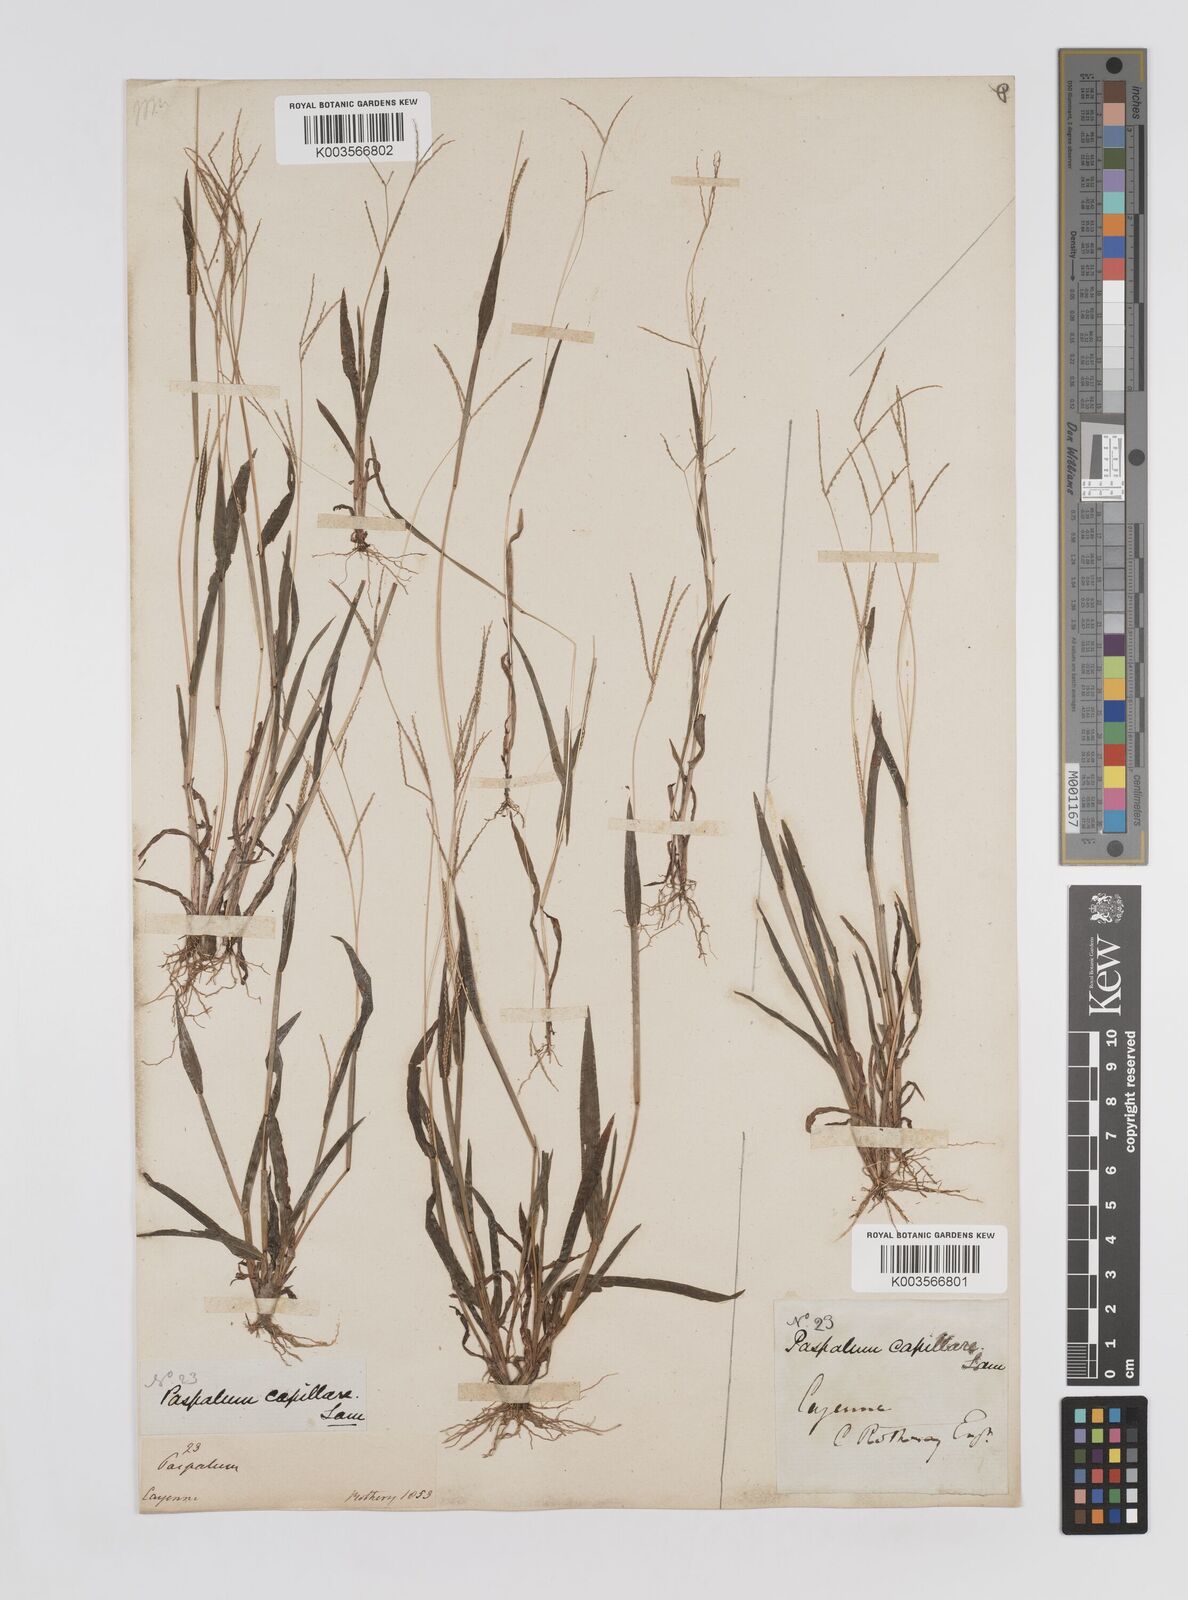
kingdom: Plantae
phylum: Tracheophyta
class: Liliopsida
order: Poales
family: Poaceae
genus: Axonopus
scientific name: Axonopus capillaris
